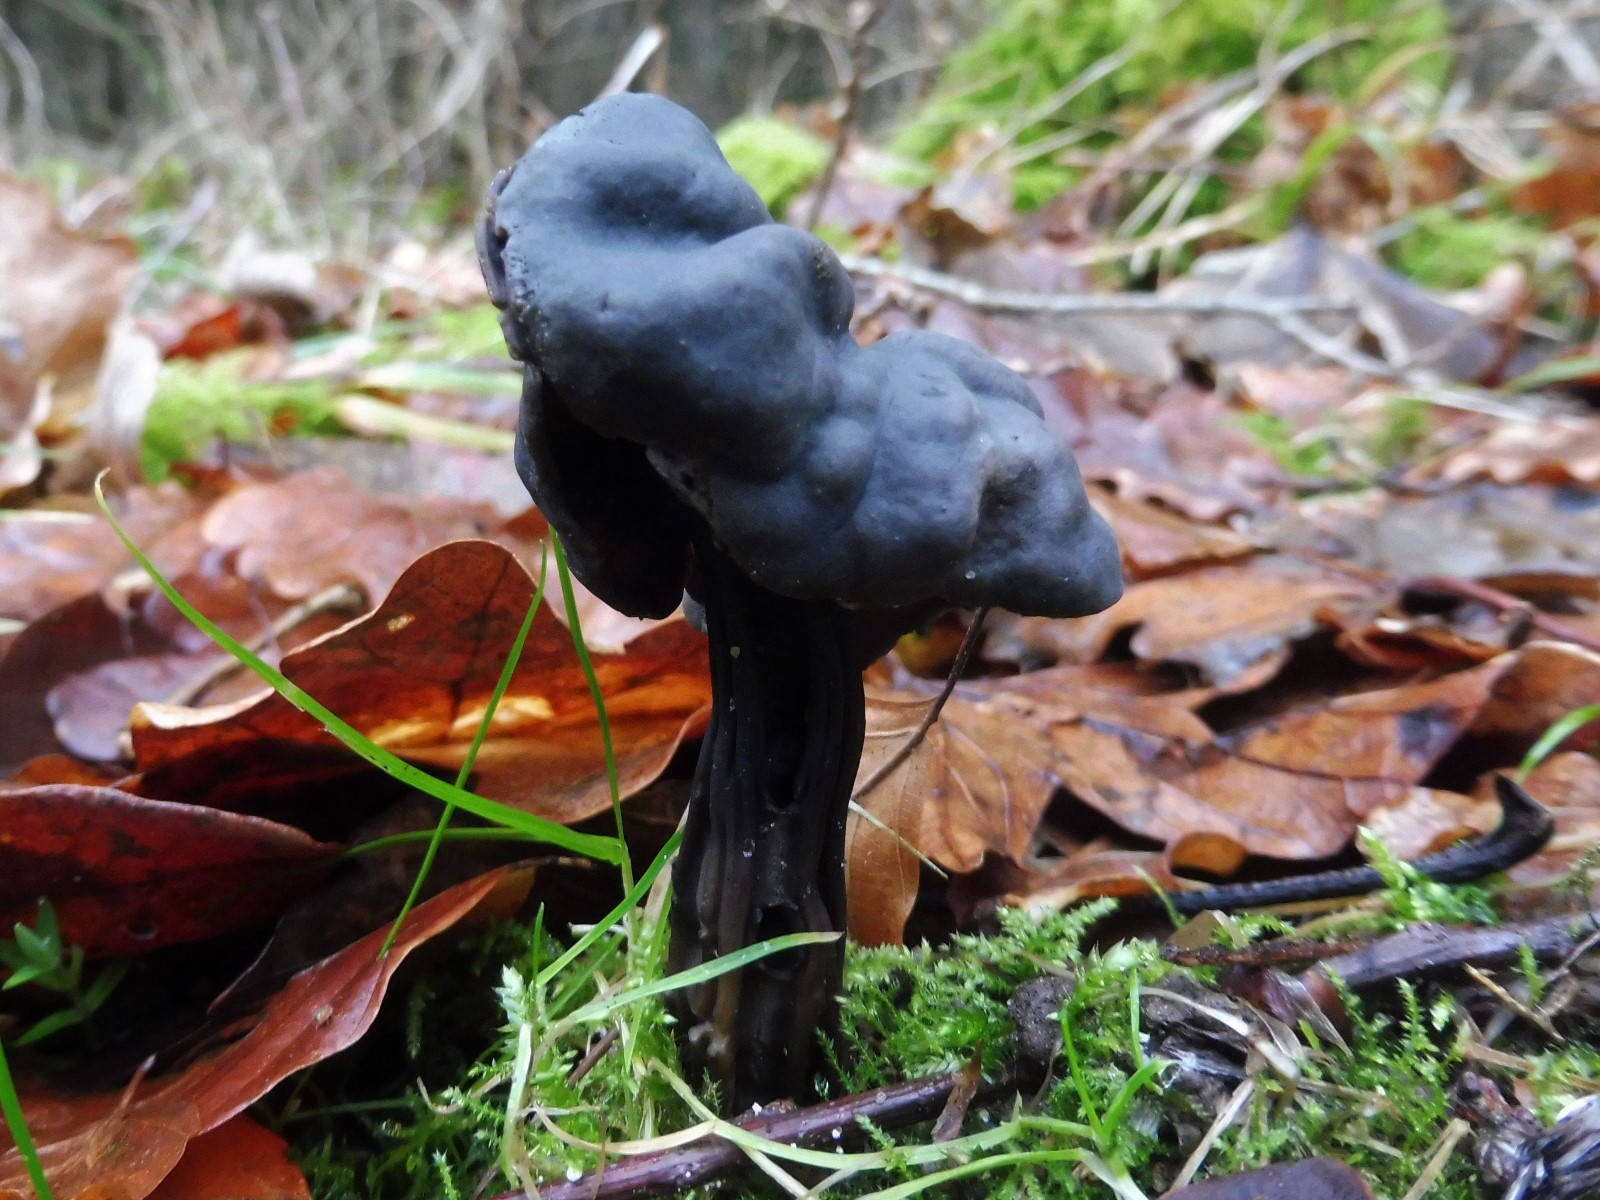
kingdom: Fungi
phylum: Ascomycota
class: Pezizomycetes
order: Pezizales
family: Helvellaceae
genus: Helvella
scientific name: Helvella lacunosa
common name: grubet foldhat
